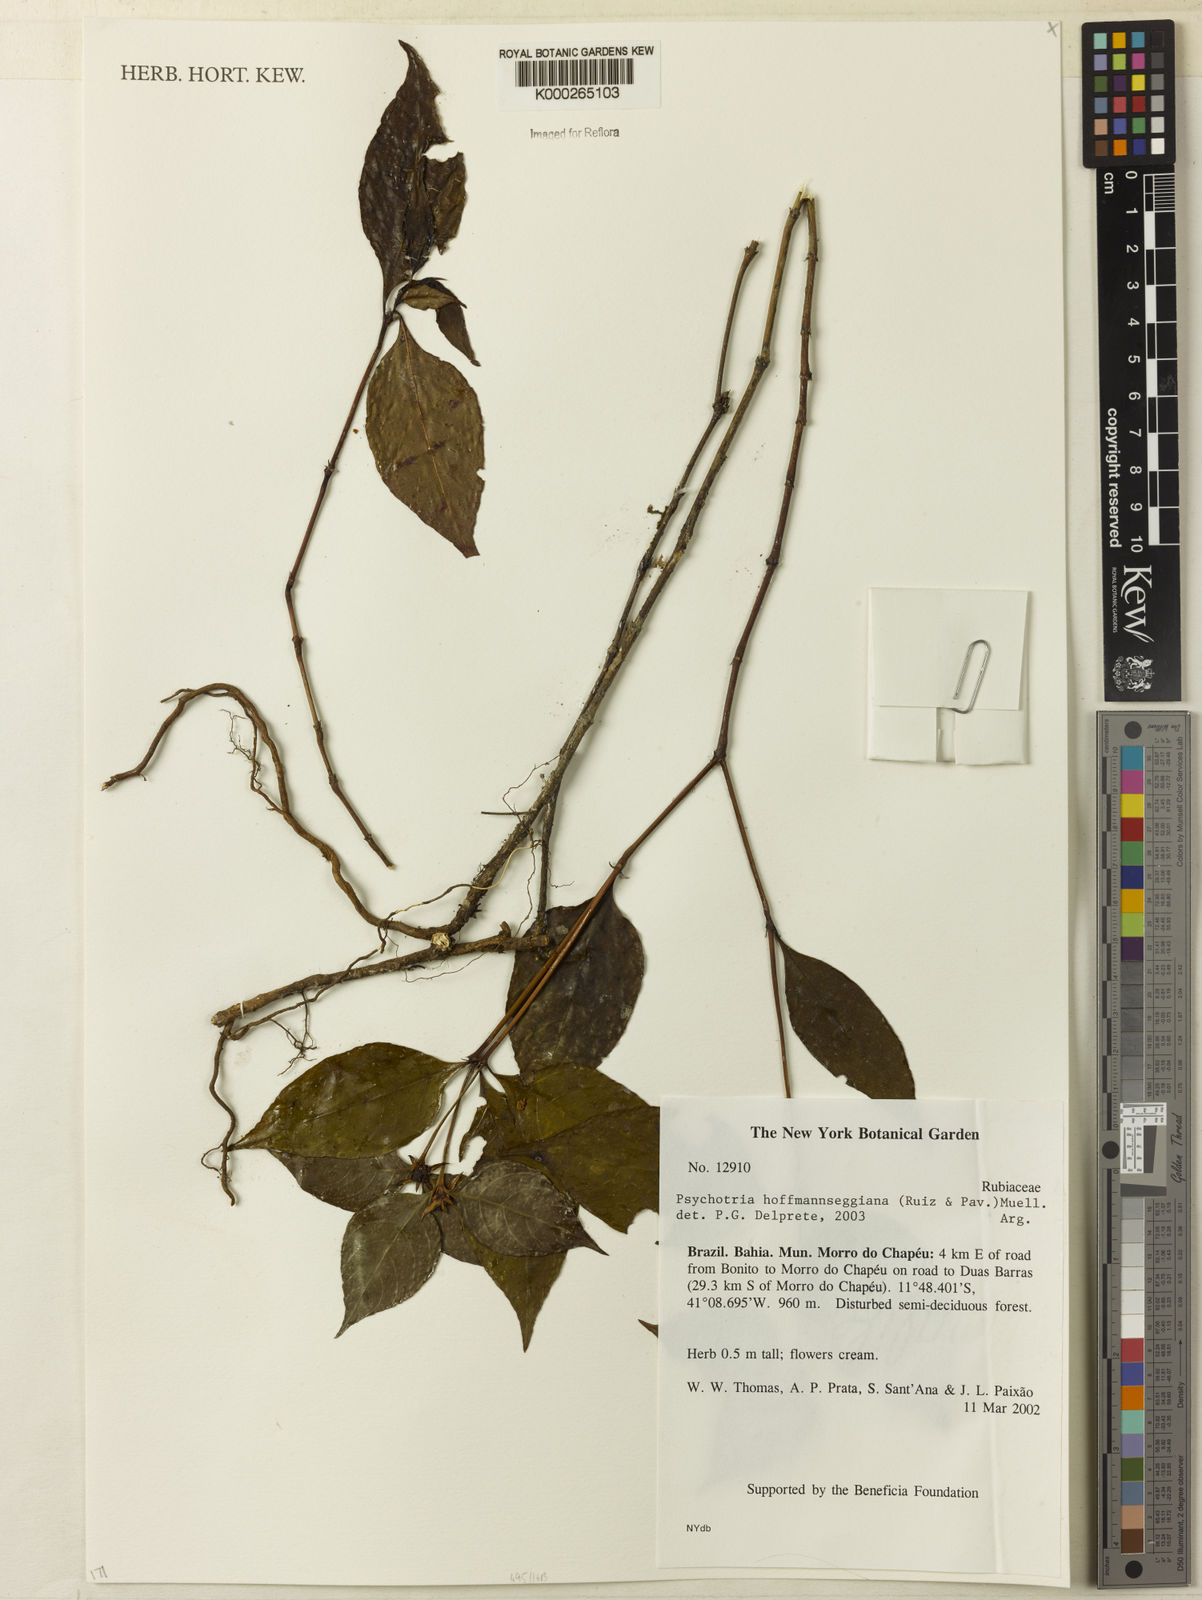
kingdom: Plantae
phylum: Tracheophyta
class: Magnoliopsida
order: Gentianales
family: Rubiaceae
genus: Psychotria
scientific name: Psychotria
